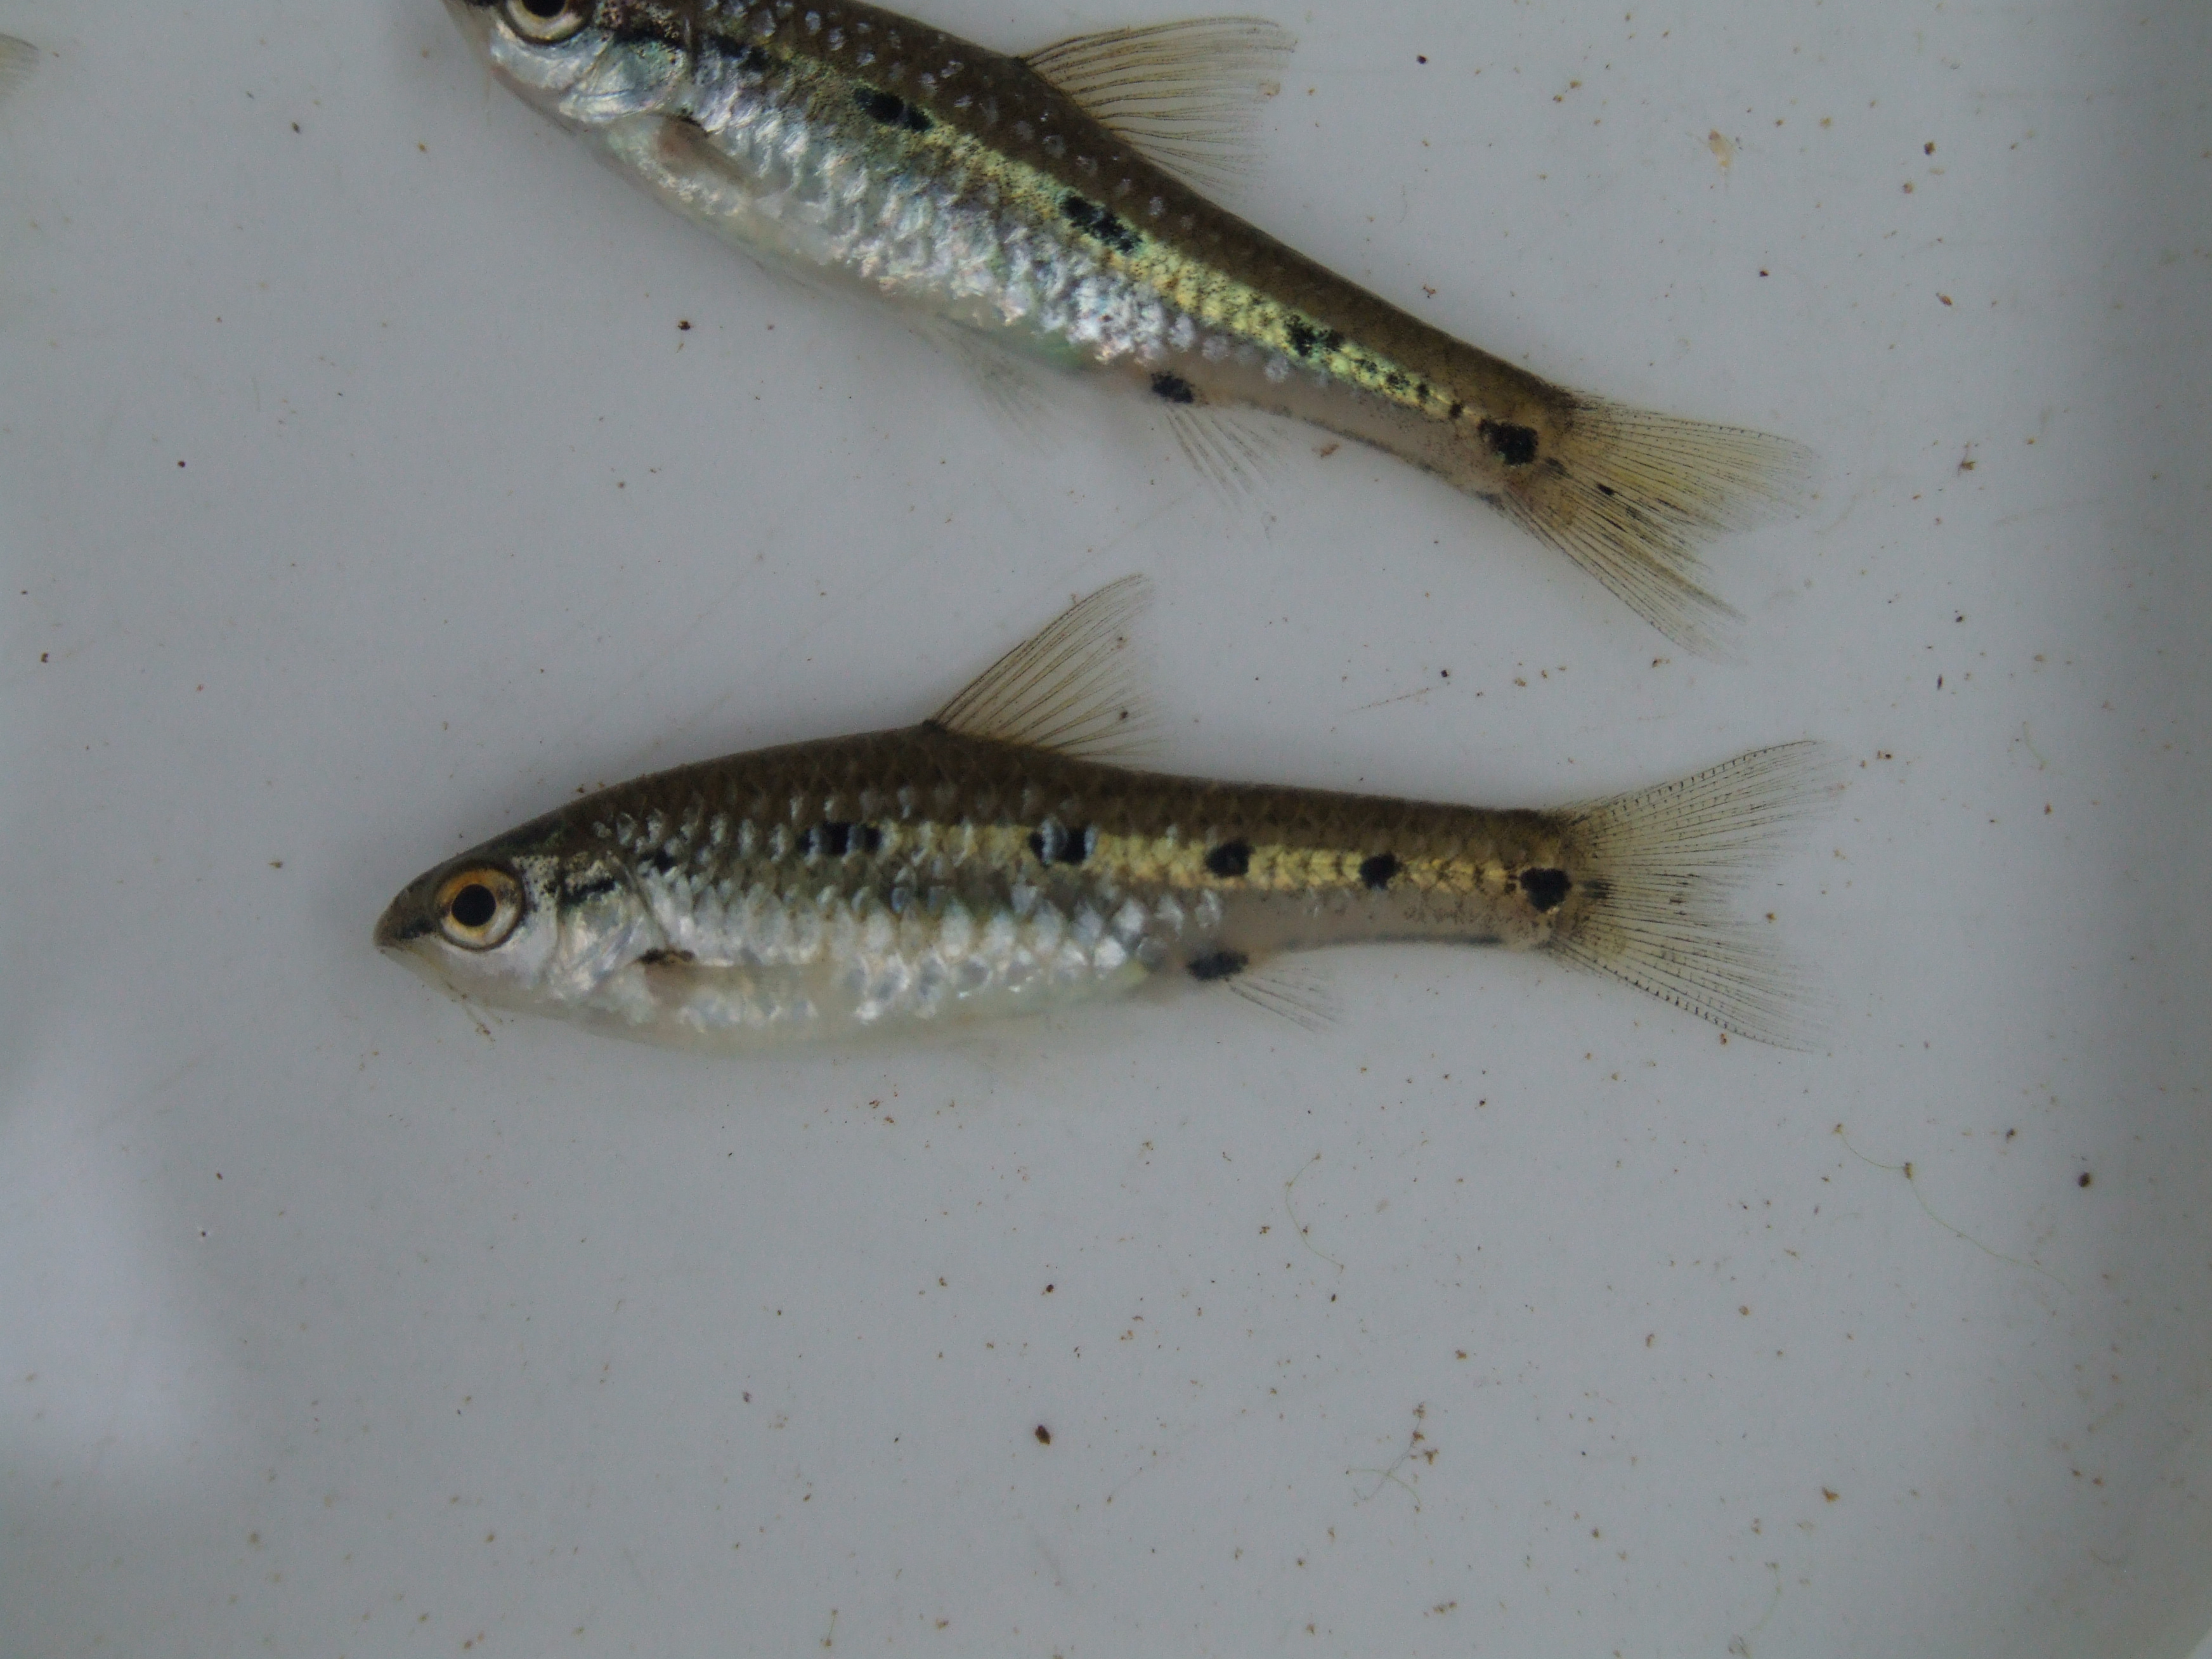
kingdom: Animalia
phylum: Chordata
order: Cypriniformes
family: Cyprinidae
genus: Enteromius
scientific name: Enteromius neefi
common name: Sidespot barb
